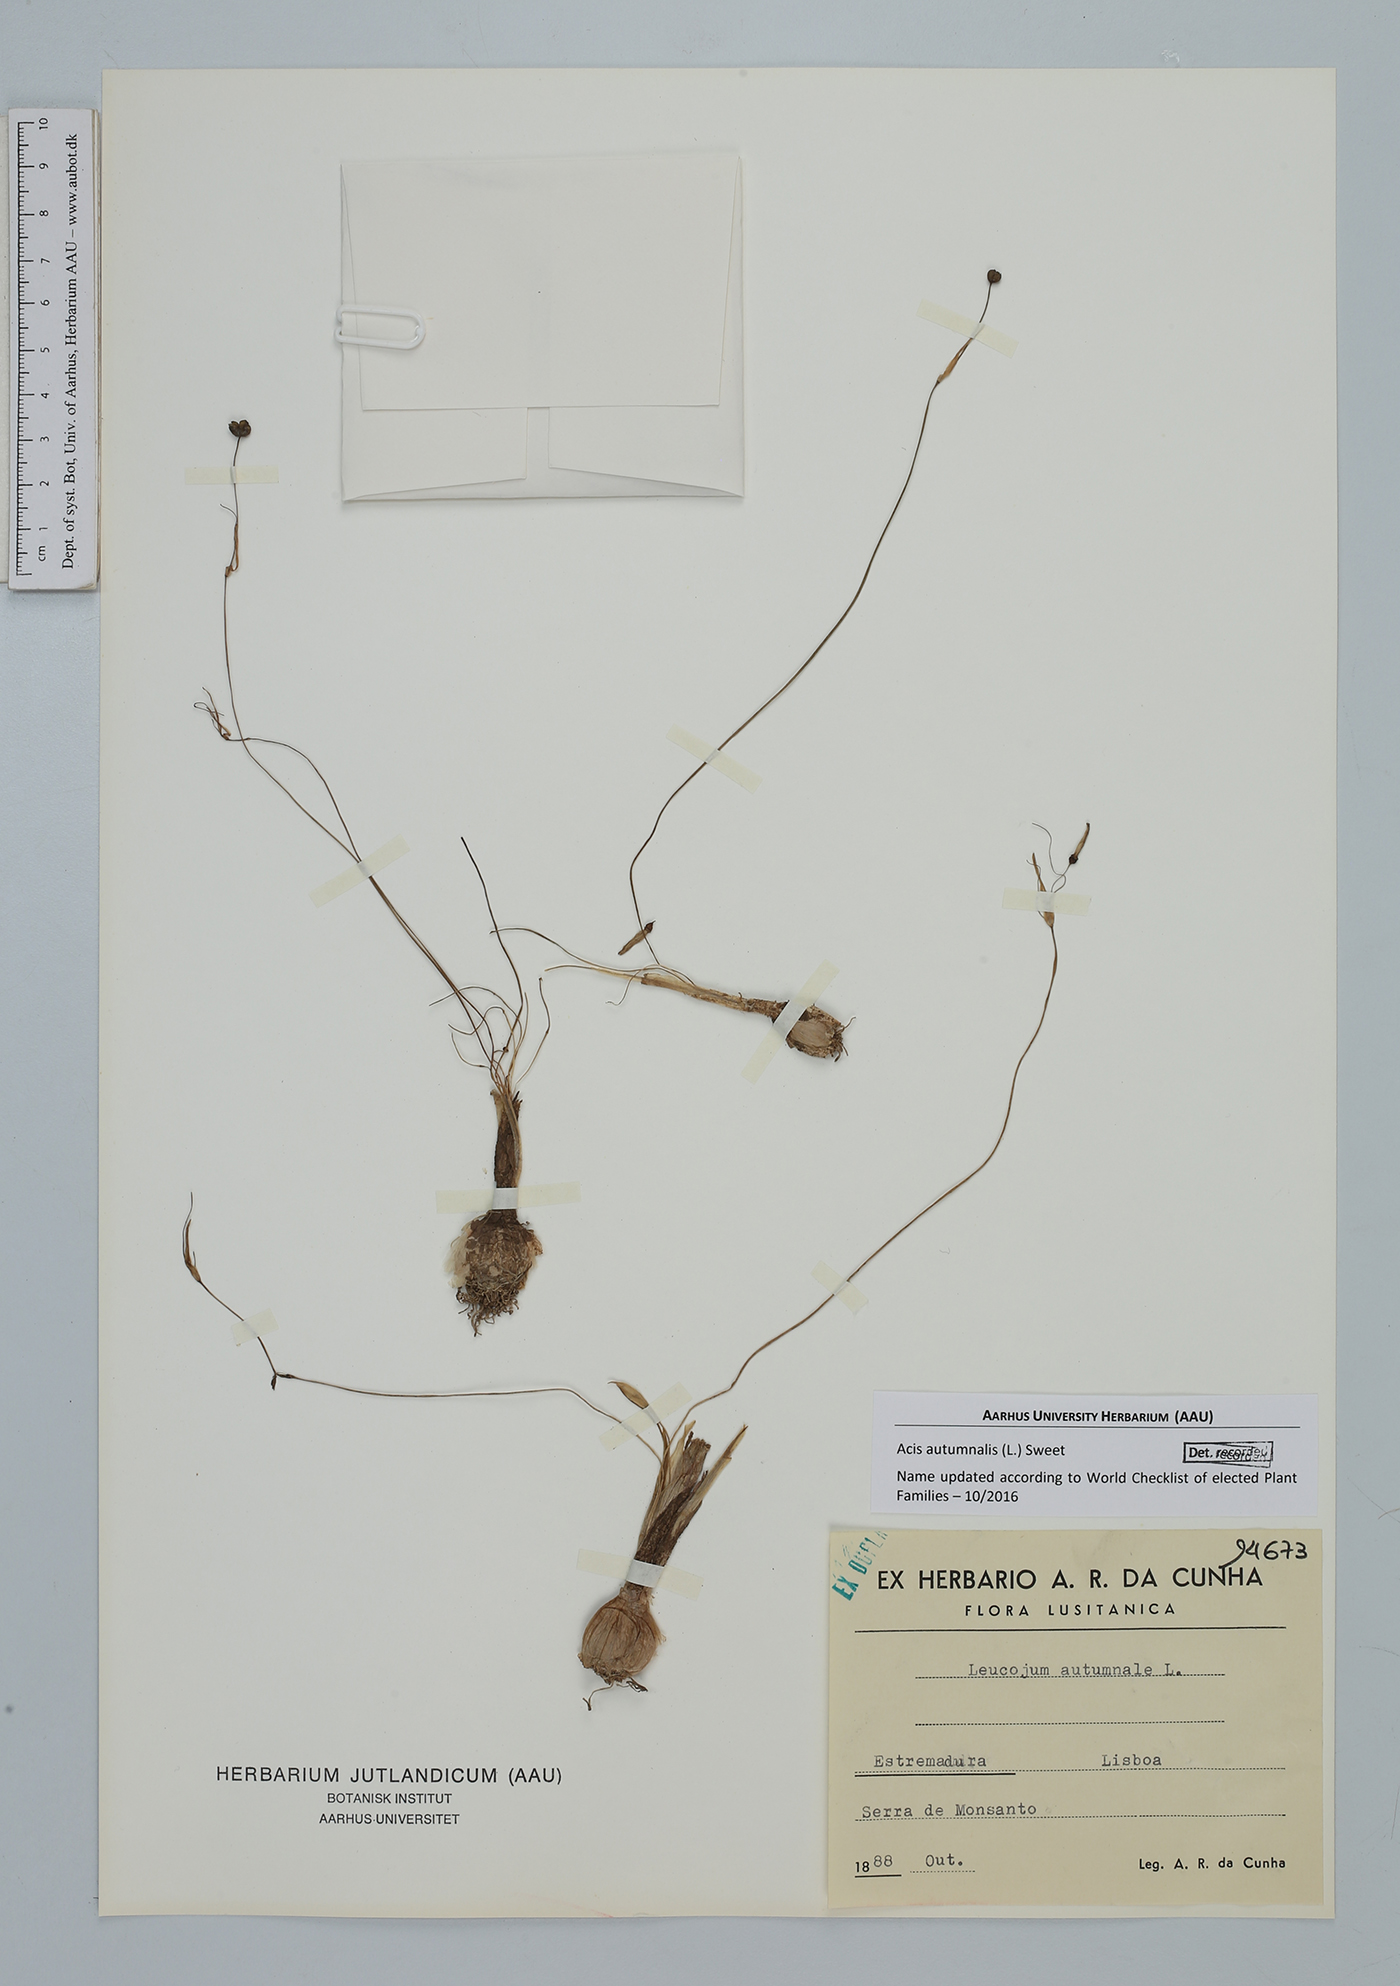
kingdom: Plantae
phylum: Tracheophyta
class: Liliopsida
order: Asparagales
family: Amaryllidaceae
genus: Acis
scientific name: Acis autumnalis
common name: Autumn snowflake
